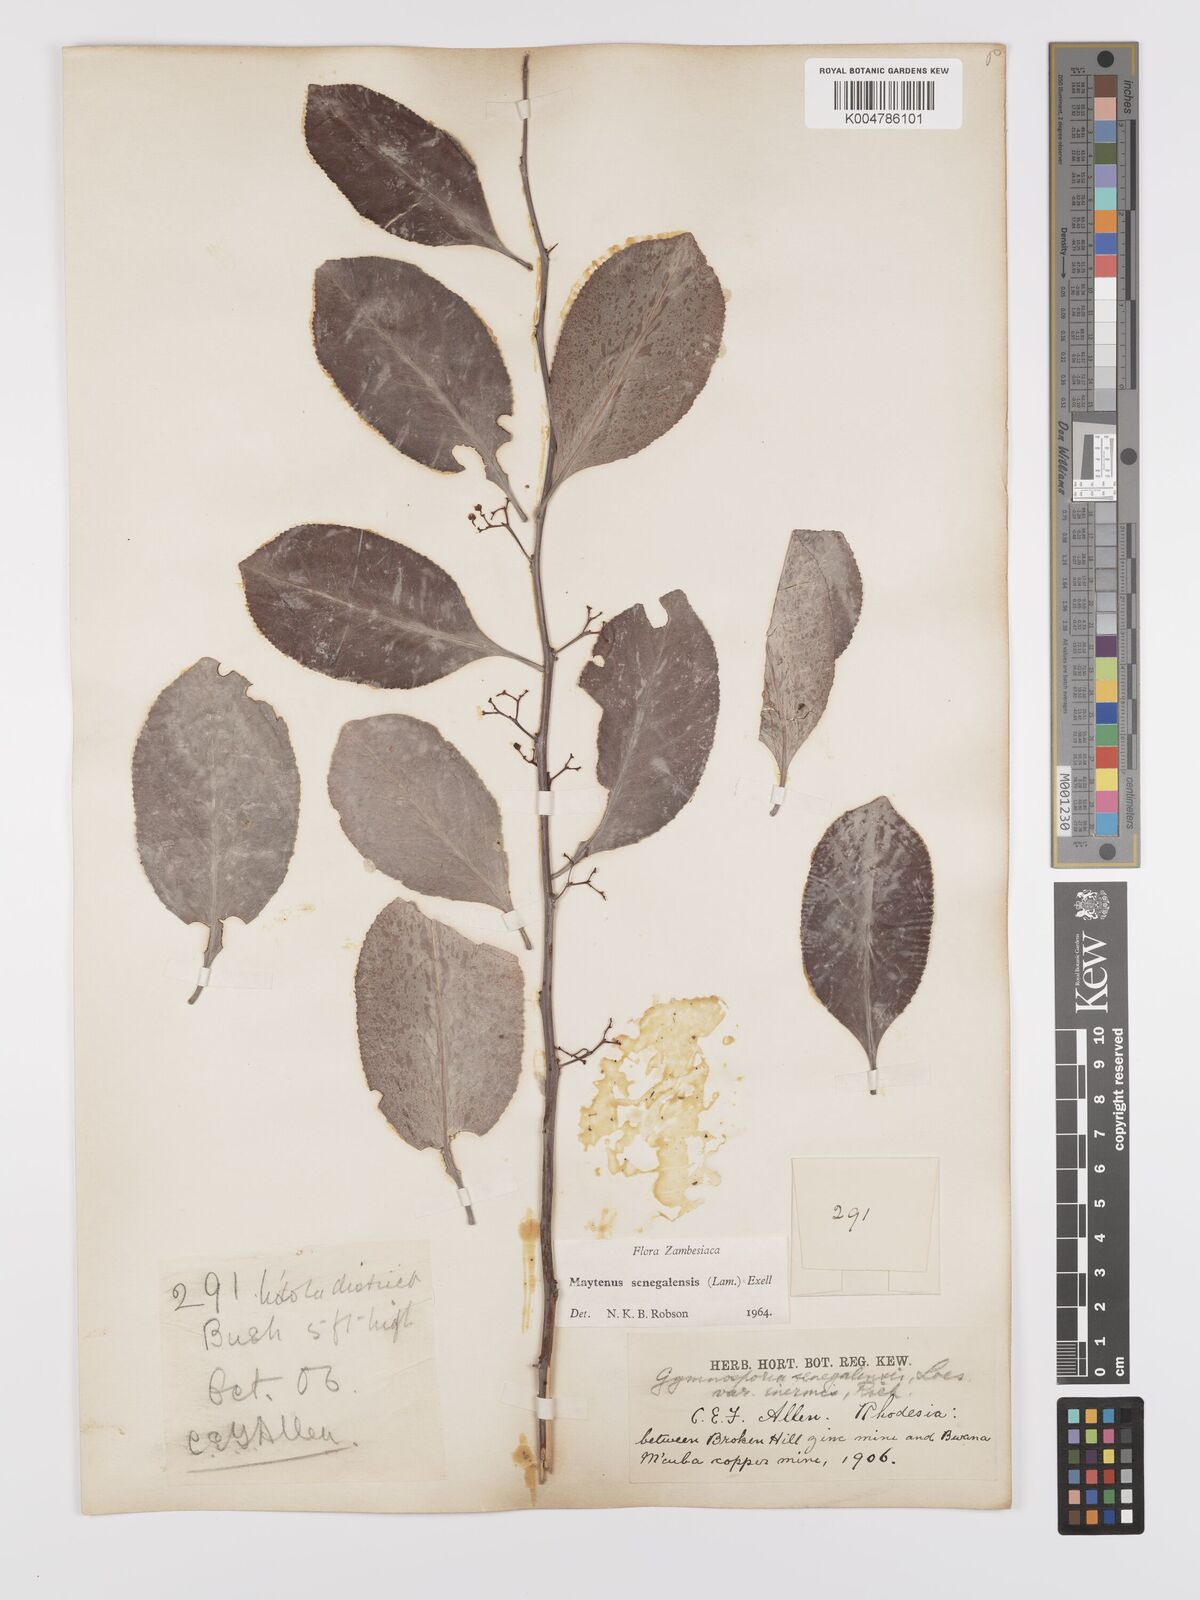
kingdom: Plantae
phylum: Tracheophyta
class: Magnoliopsida
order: Celastrales
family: Celastraceae
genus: Gymnosporia
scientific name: Gymnosporia senegalensis
